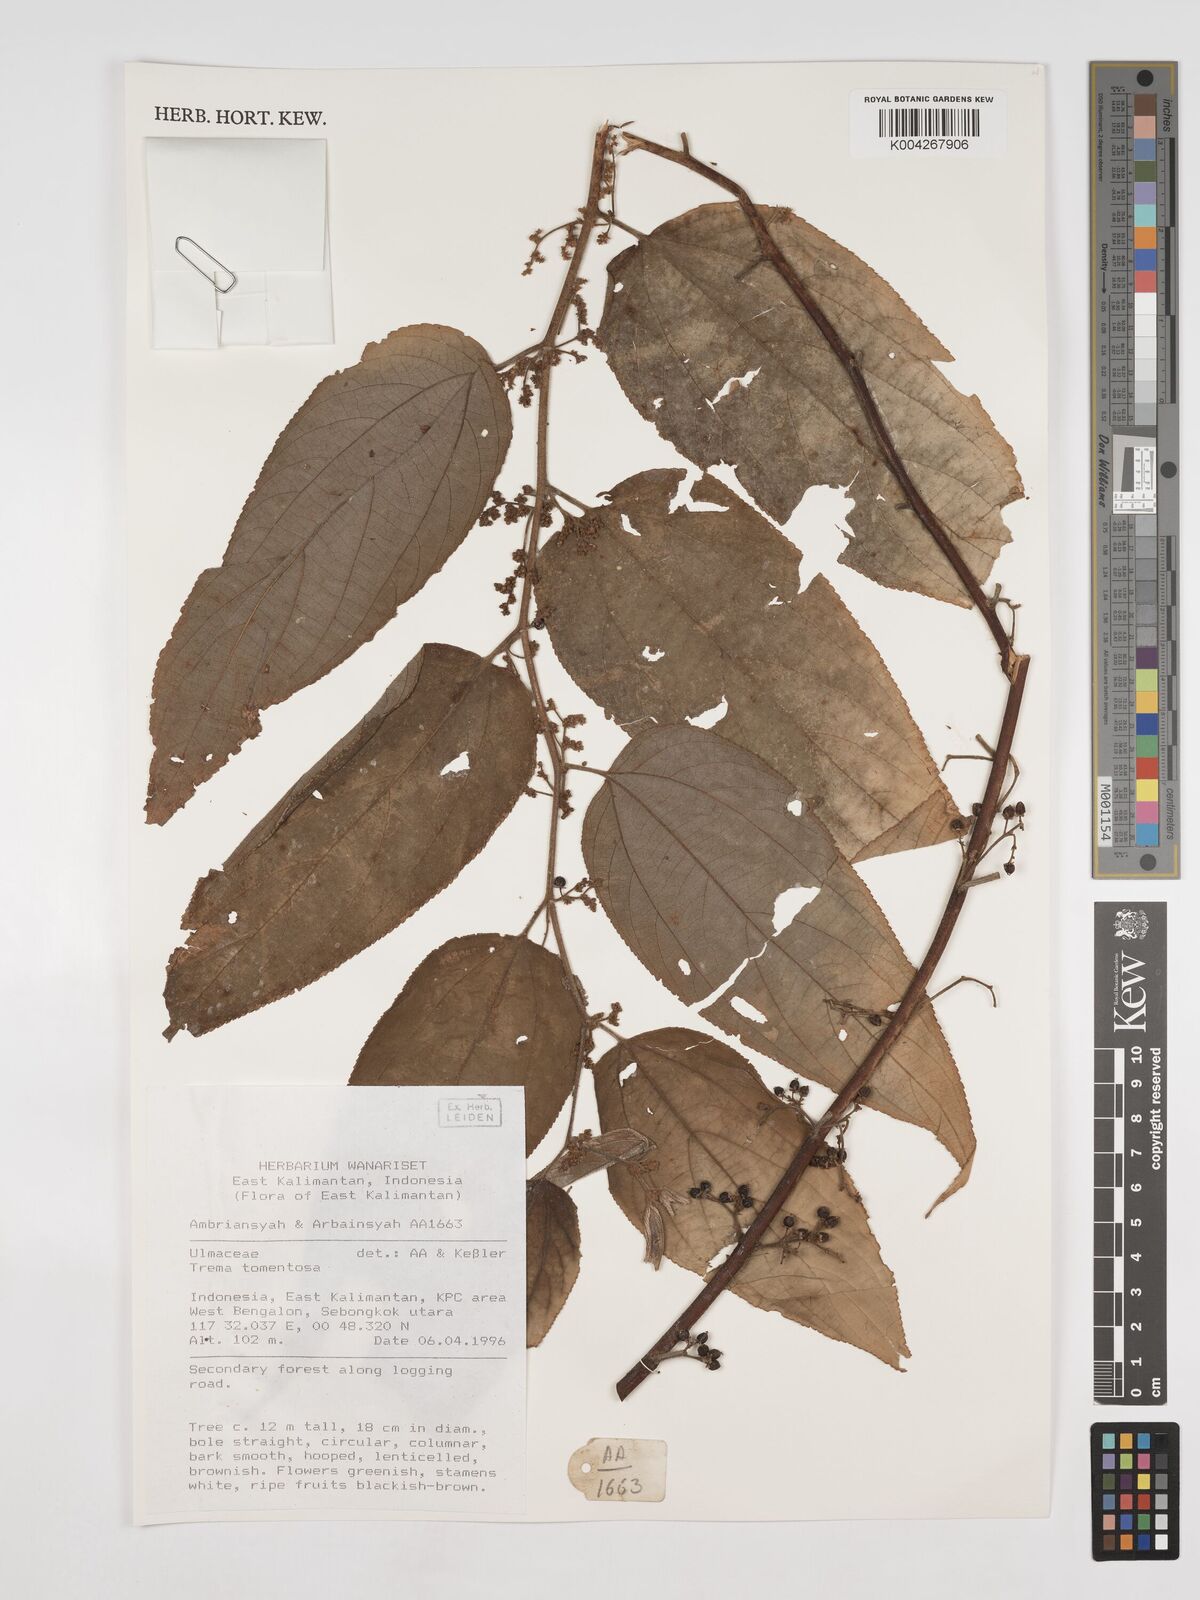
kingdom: Plantae
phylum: Tracheophyta
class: Magnoliopsida
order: Rosales
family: Cannabaceae
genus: Trema
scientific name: Trema tomentosum
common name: Peach-leaf-poisonbush
